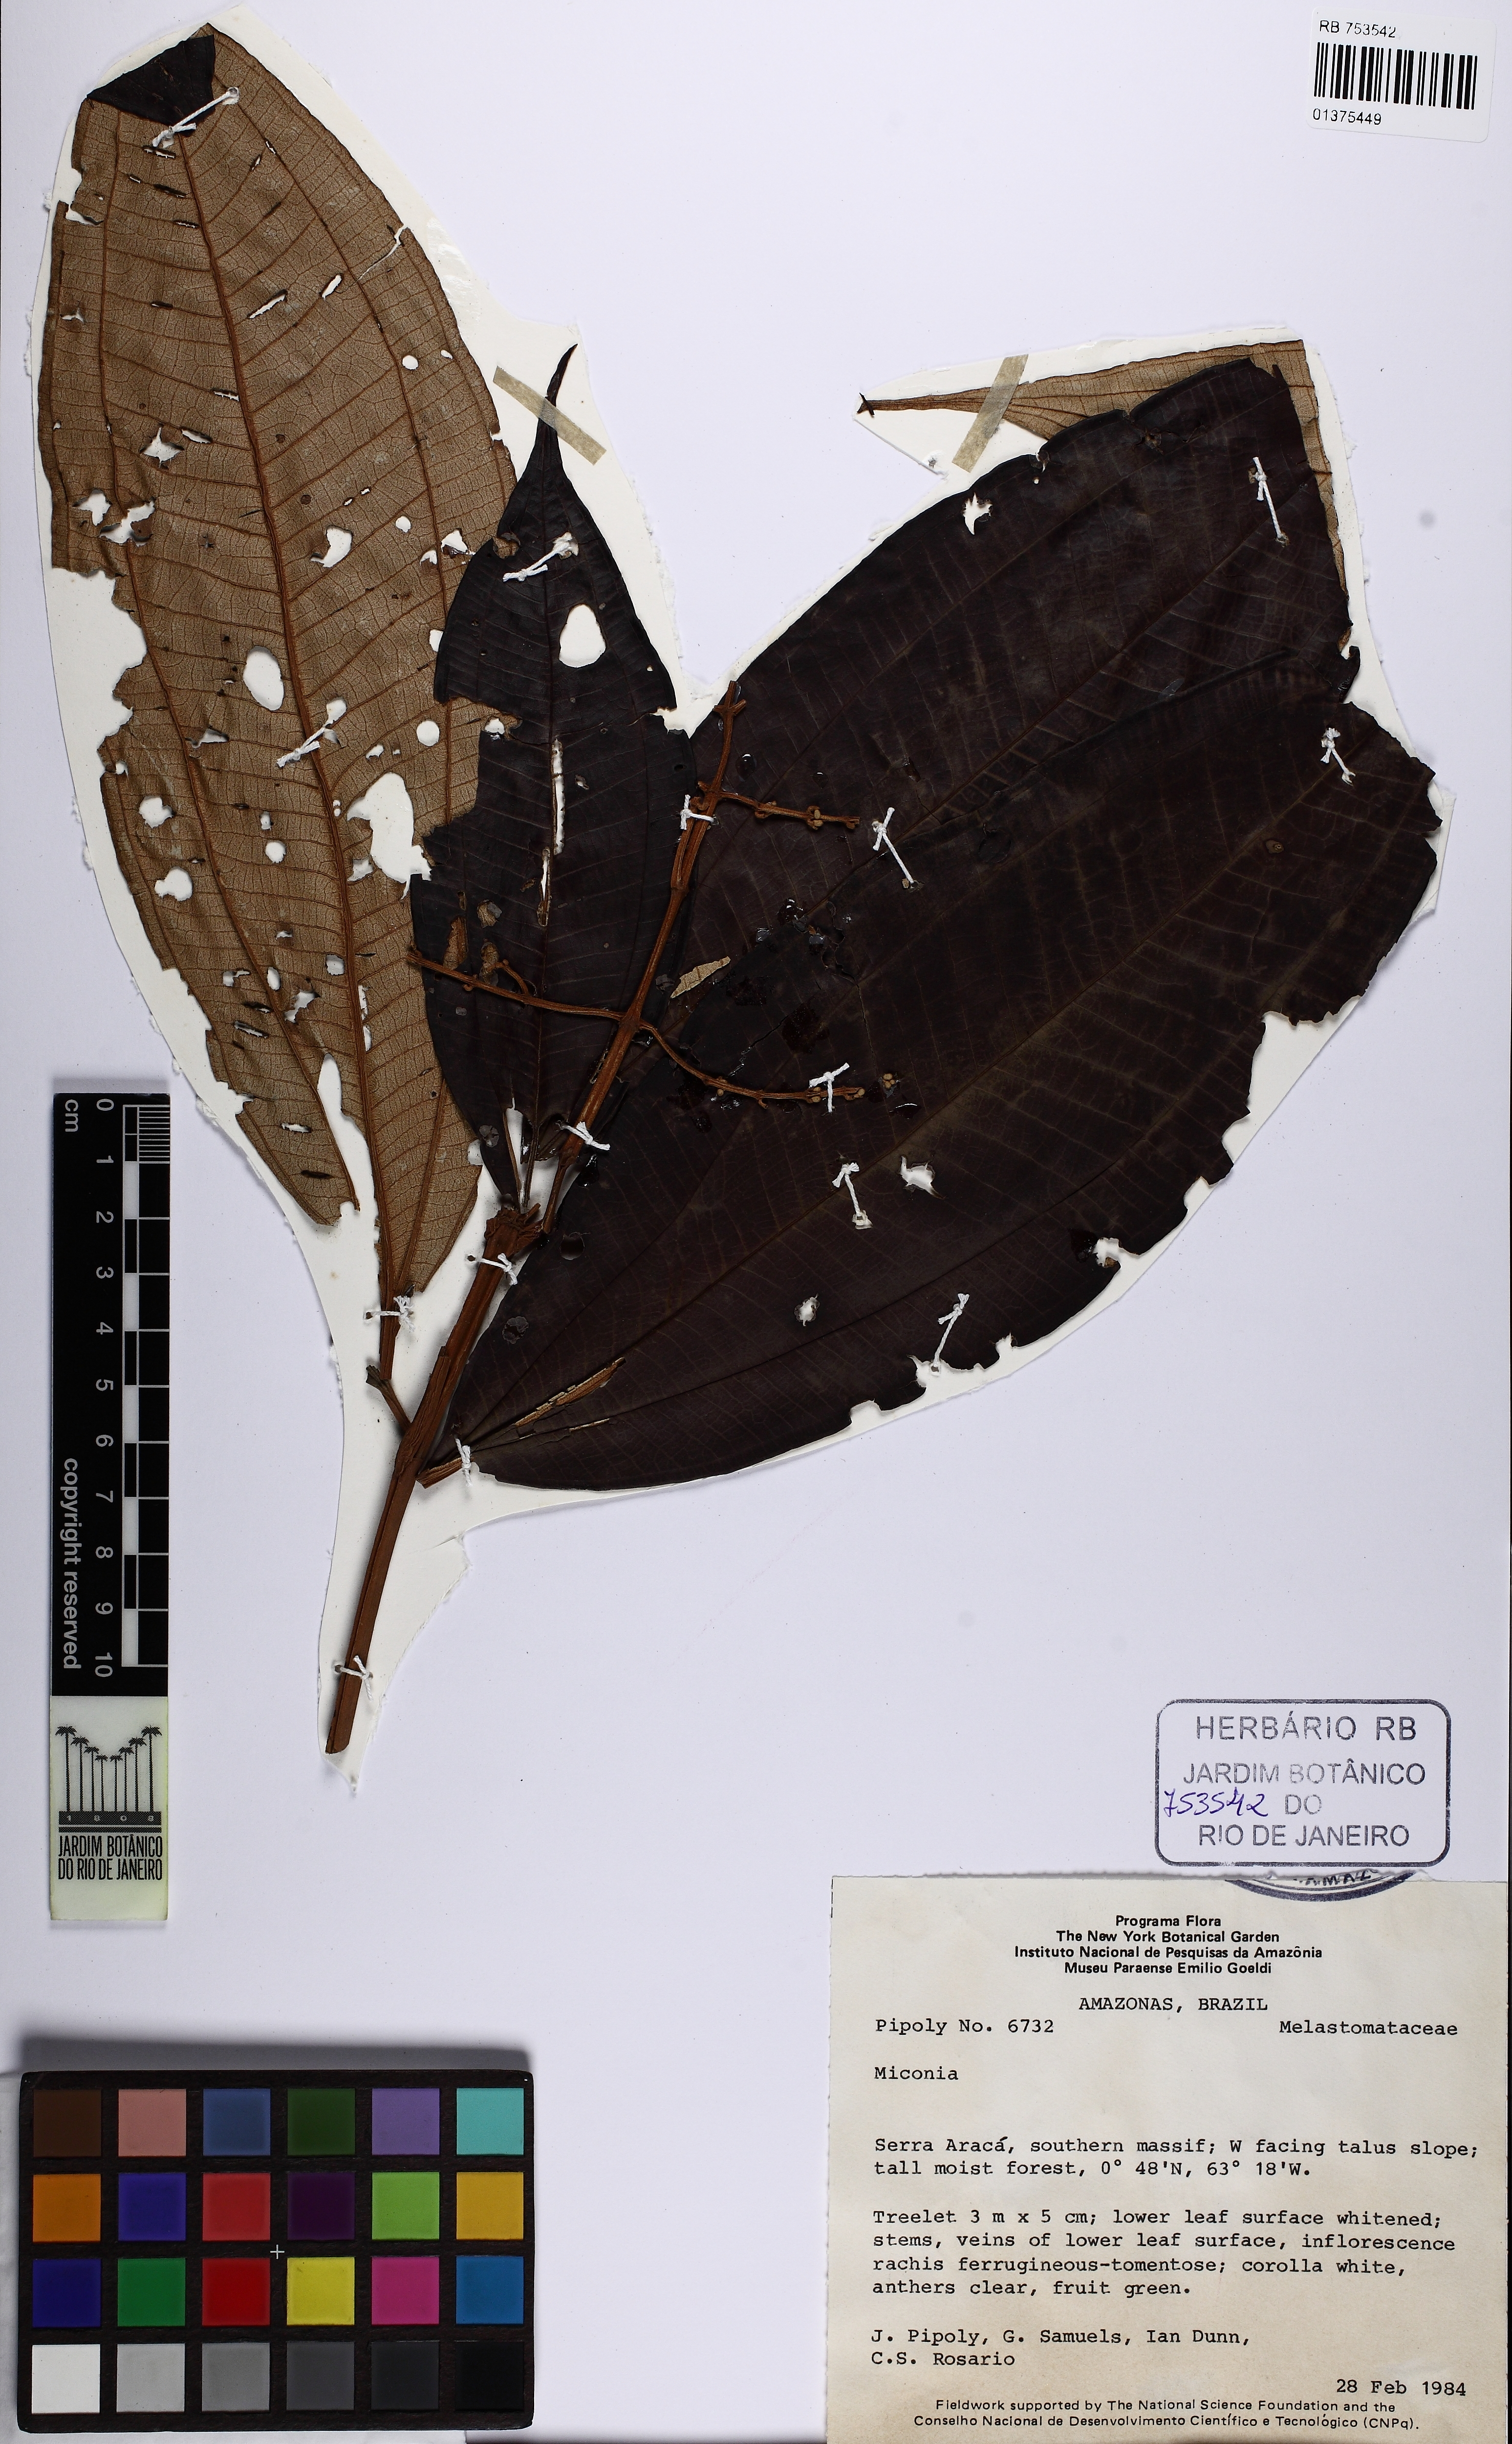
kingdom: Plantae
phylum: Tracheophyta
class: Magnoliopsida
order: Myrtales
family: Melastomataceae
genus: Miconia
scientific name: Miconia cowanii
